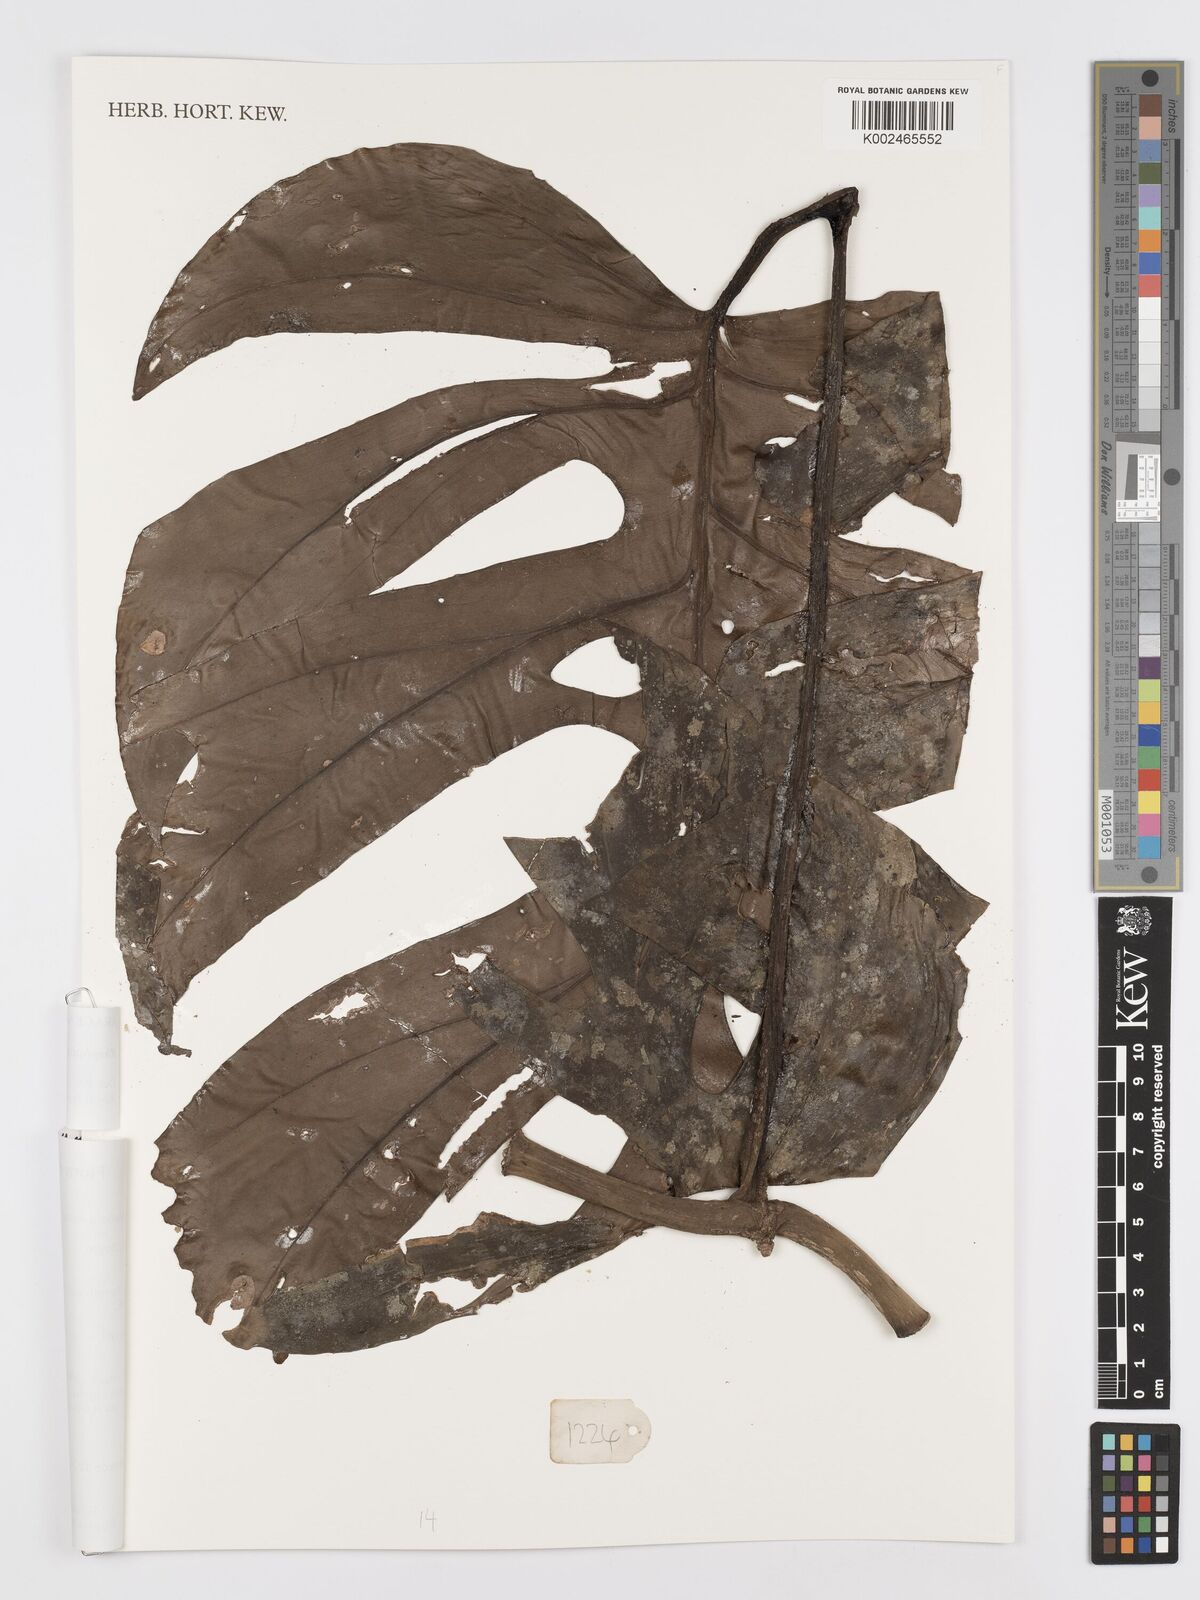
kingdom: Plantae
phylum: Tracheophyta
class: Liliopsida
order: Alismatales
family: Araceae
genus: Rhaphidophora
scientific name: Rhaphidophora tetrasperma
